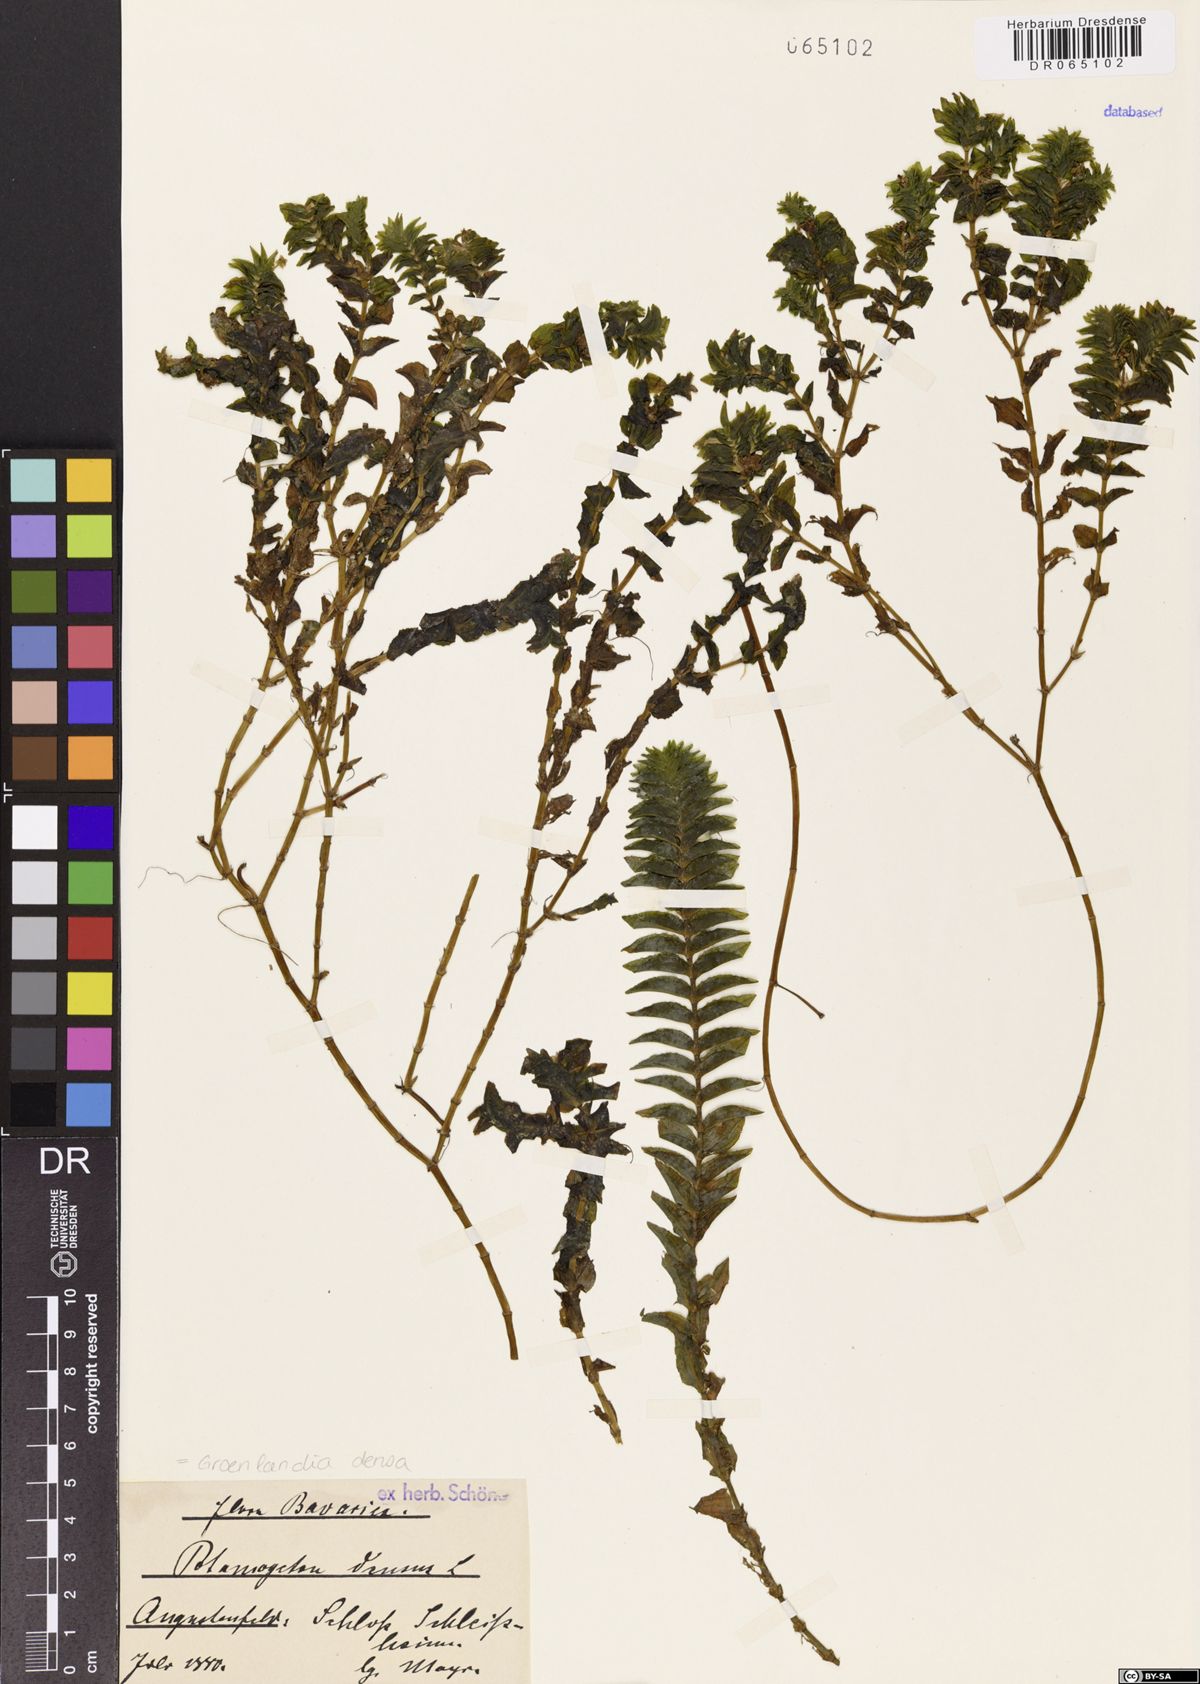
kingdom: Plantae
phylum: Tracheophyta
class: Liliopsida
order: Alismatales
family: Potamogetonaceae
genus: Groenlandia
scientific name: Groenlandia densa
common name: Opposite-leaved pondweed
